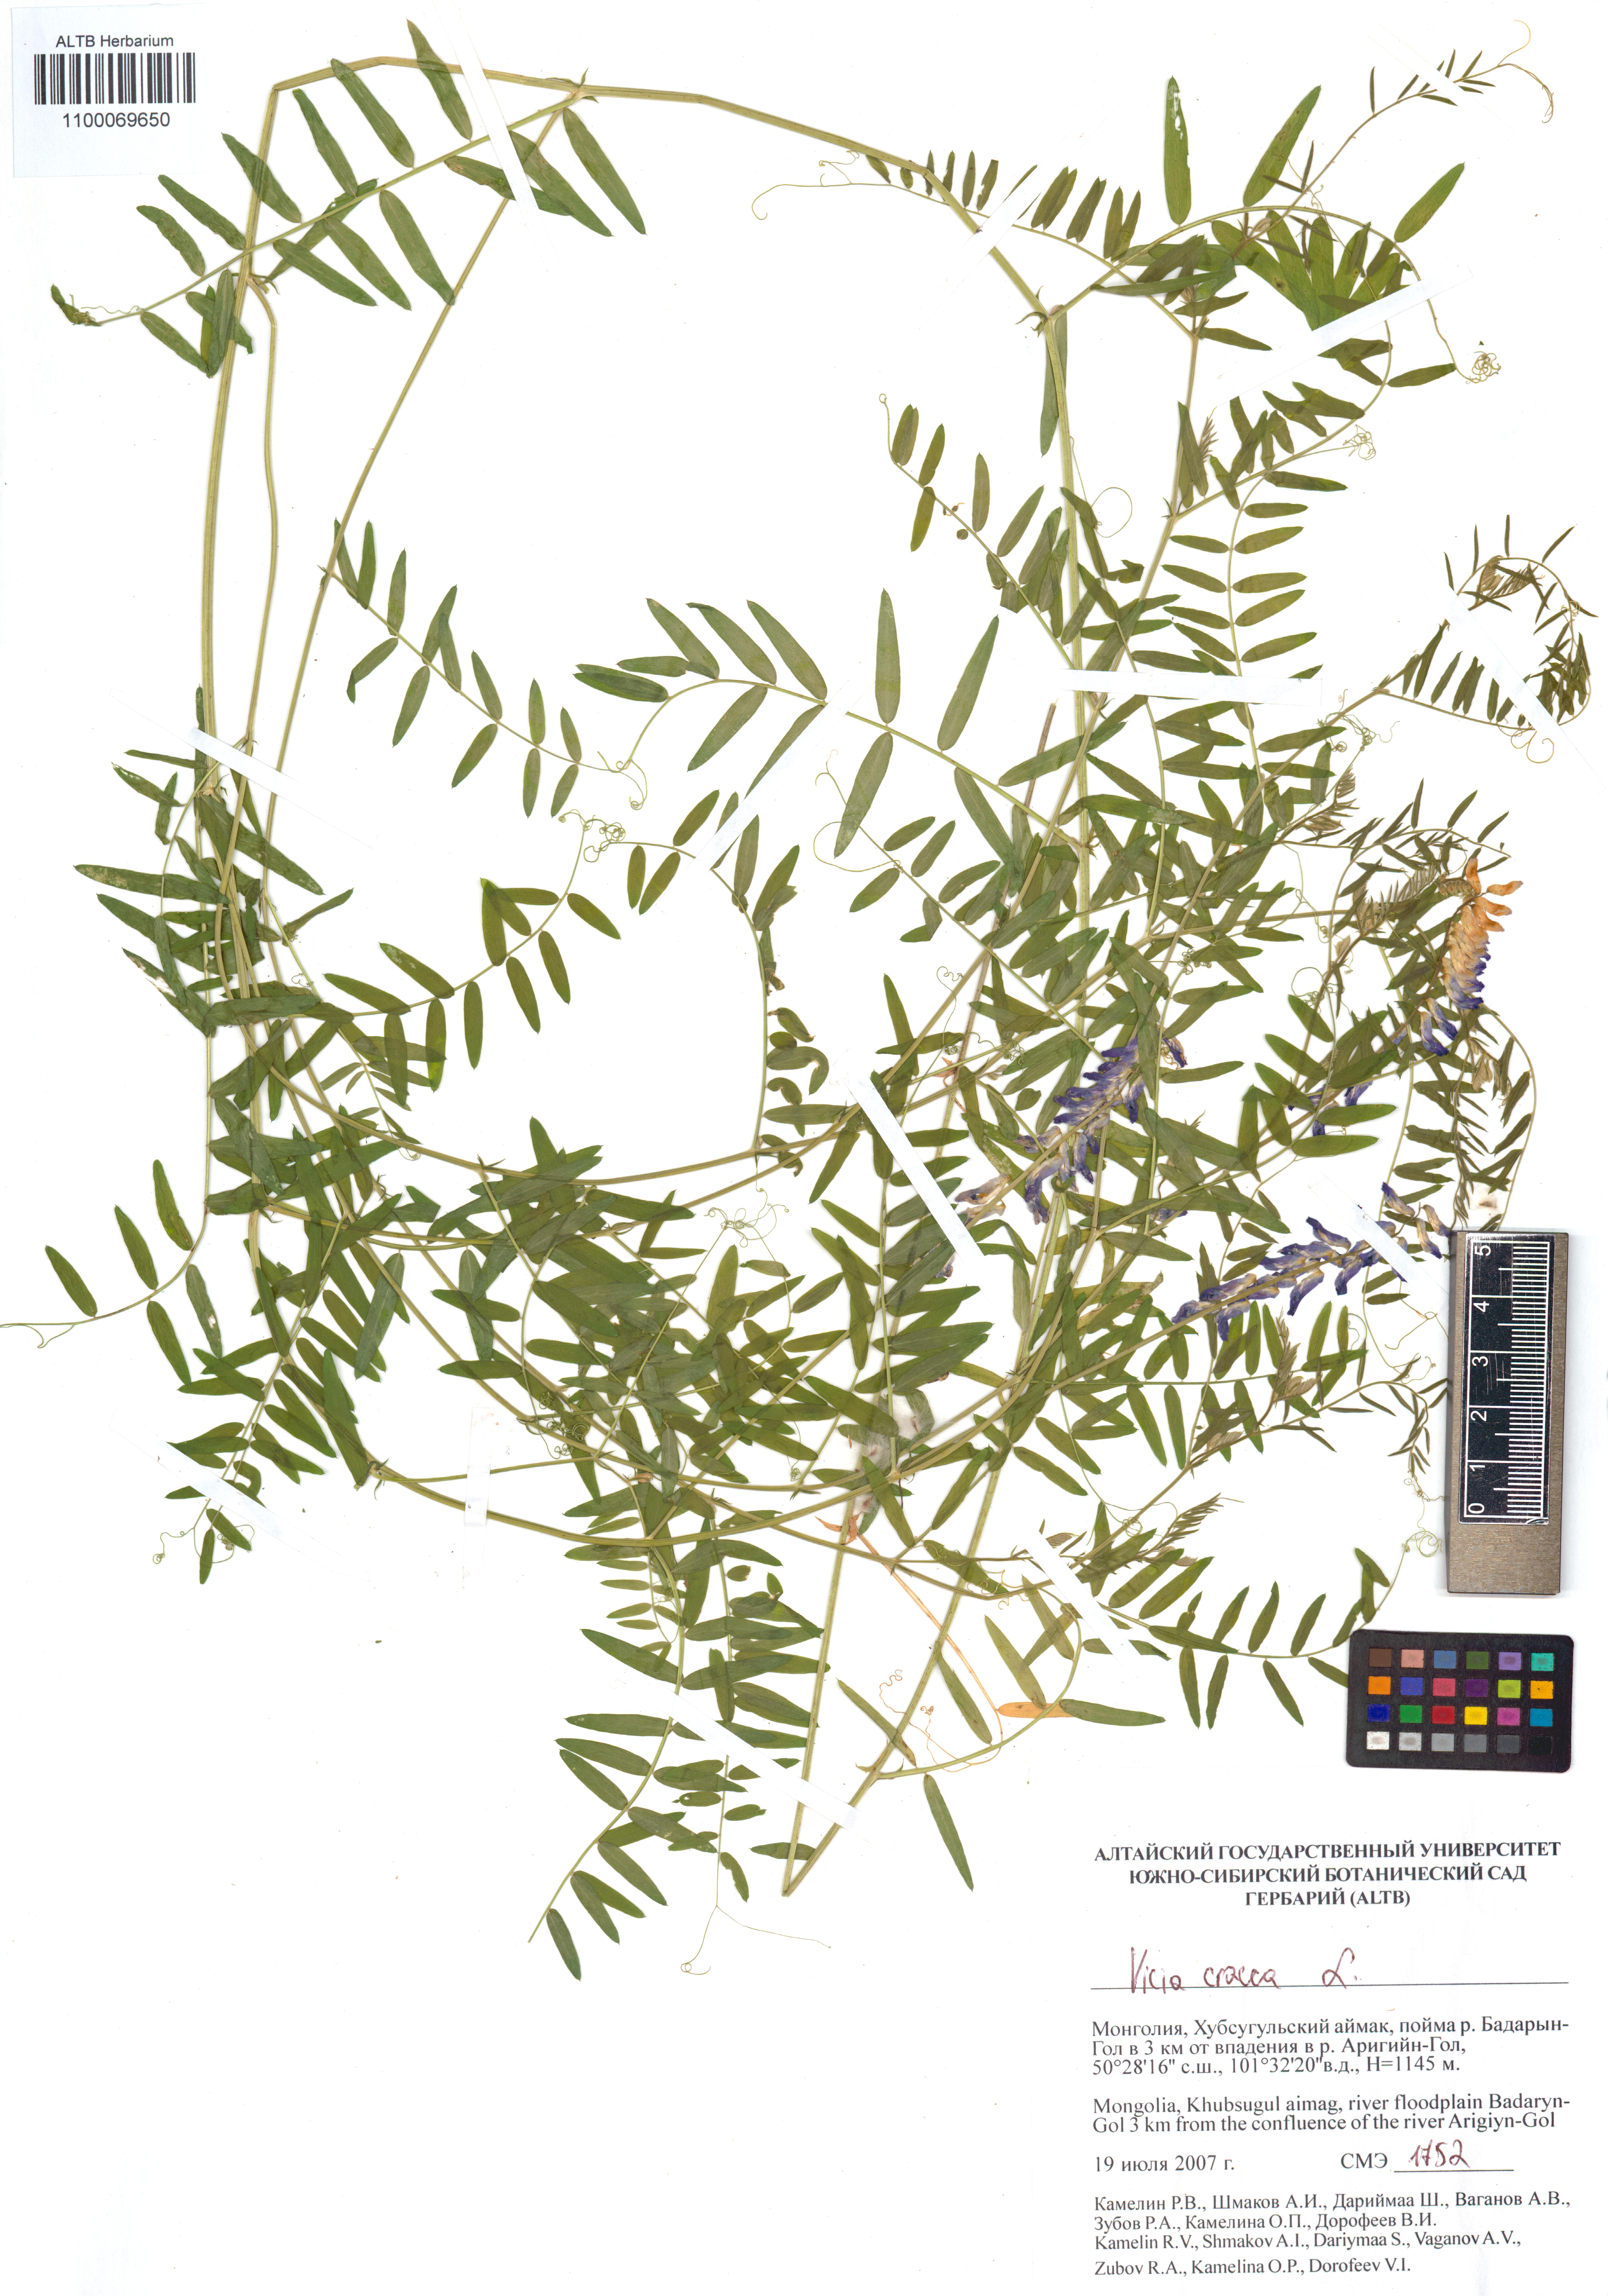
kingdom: Plantae
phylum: Tracheophyta
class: Magnoliopsida
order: Fabales
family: Fabaceae
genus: Vicia
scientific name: Vicia cracca
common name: Bird vetch
